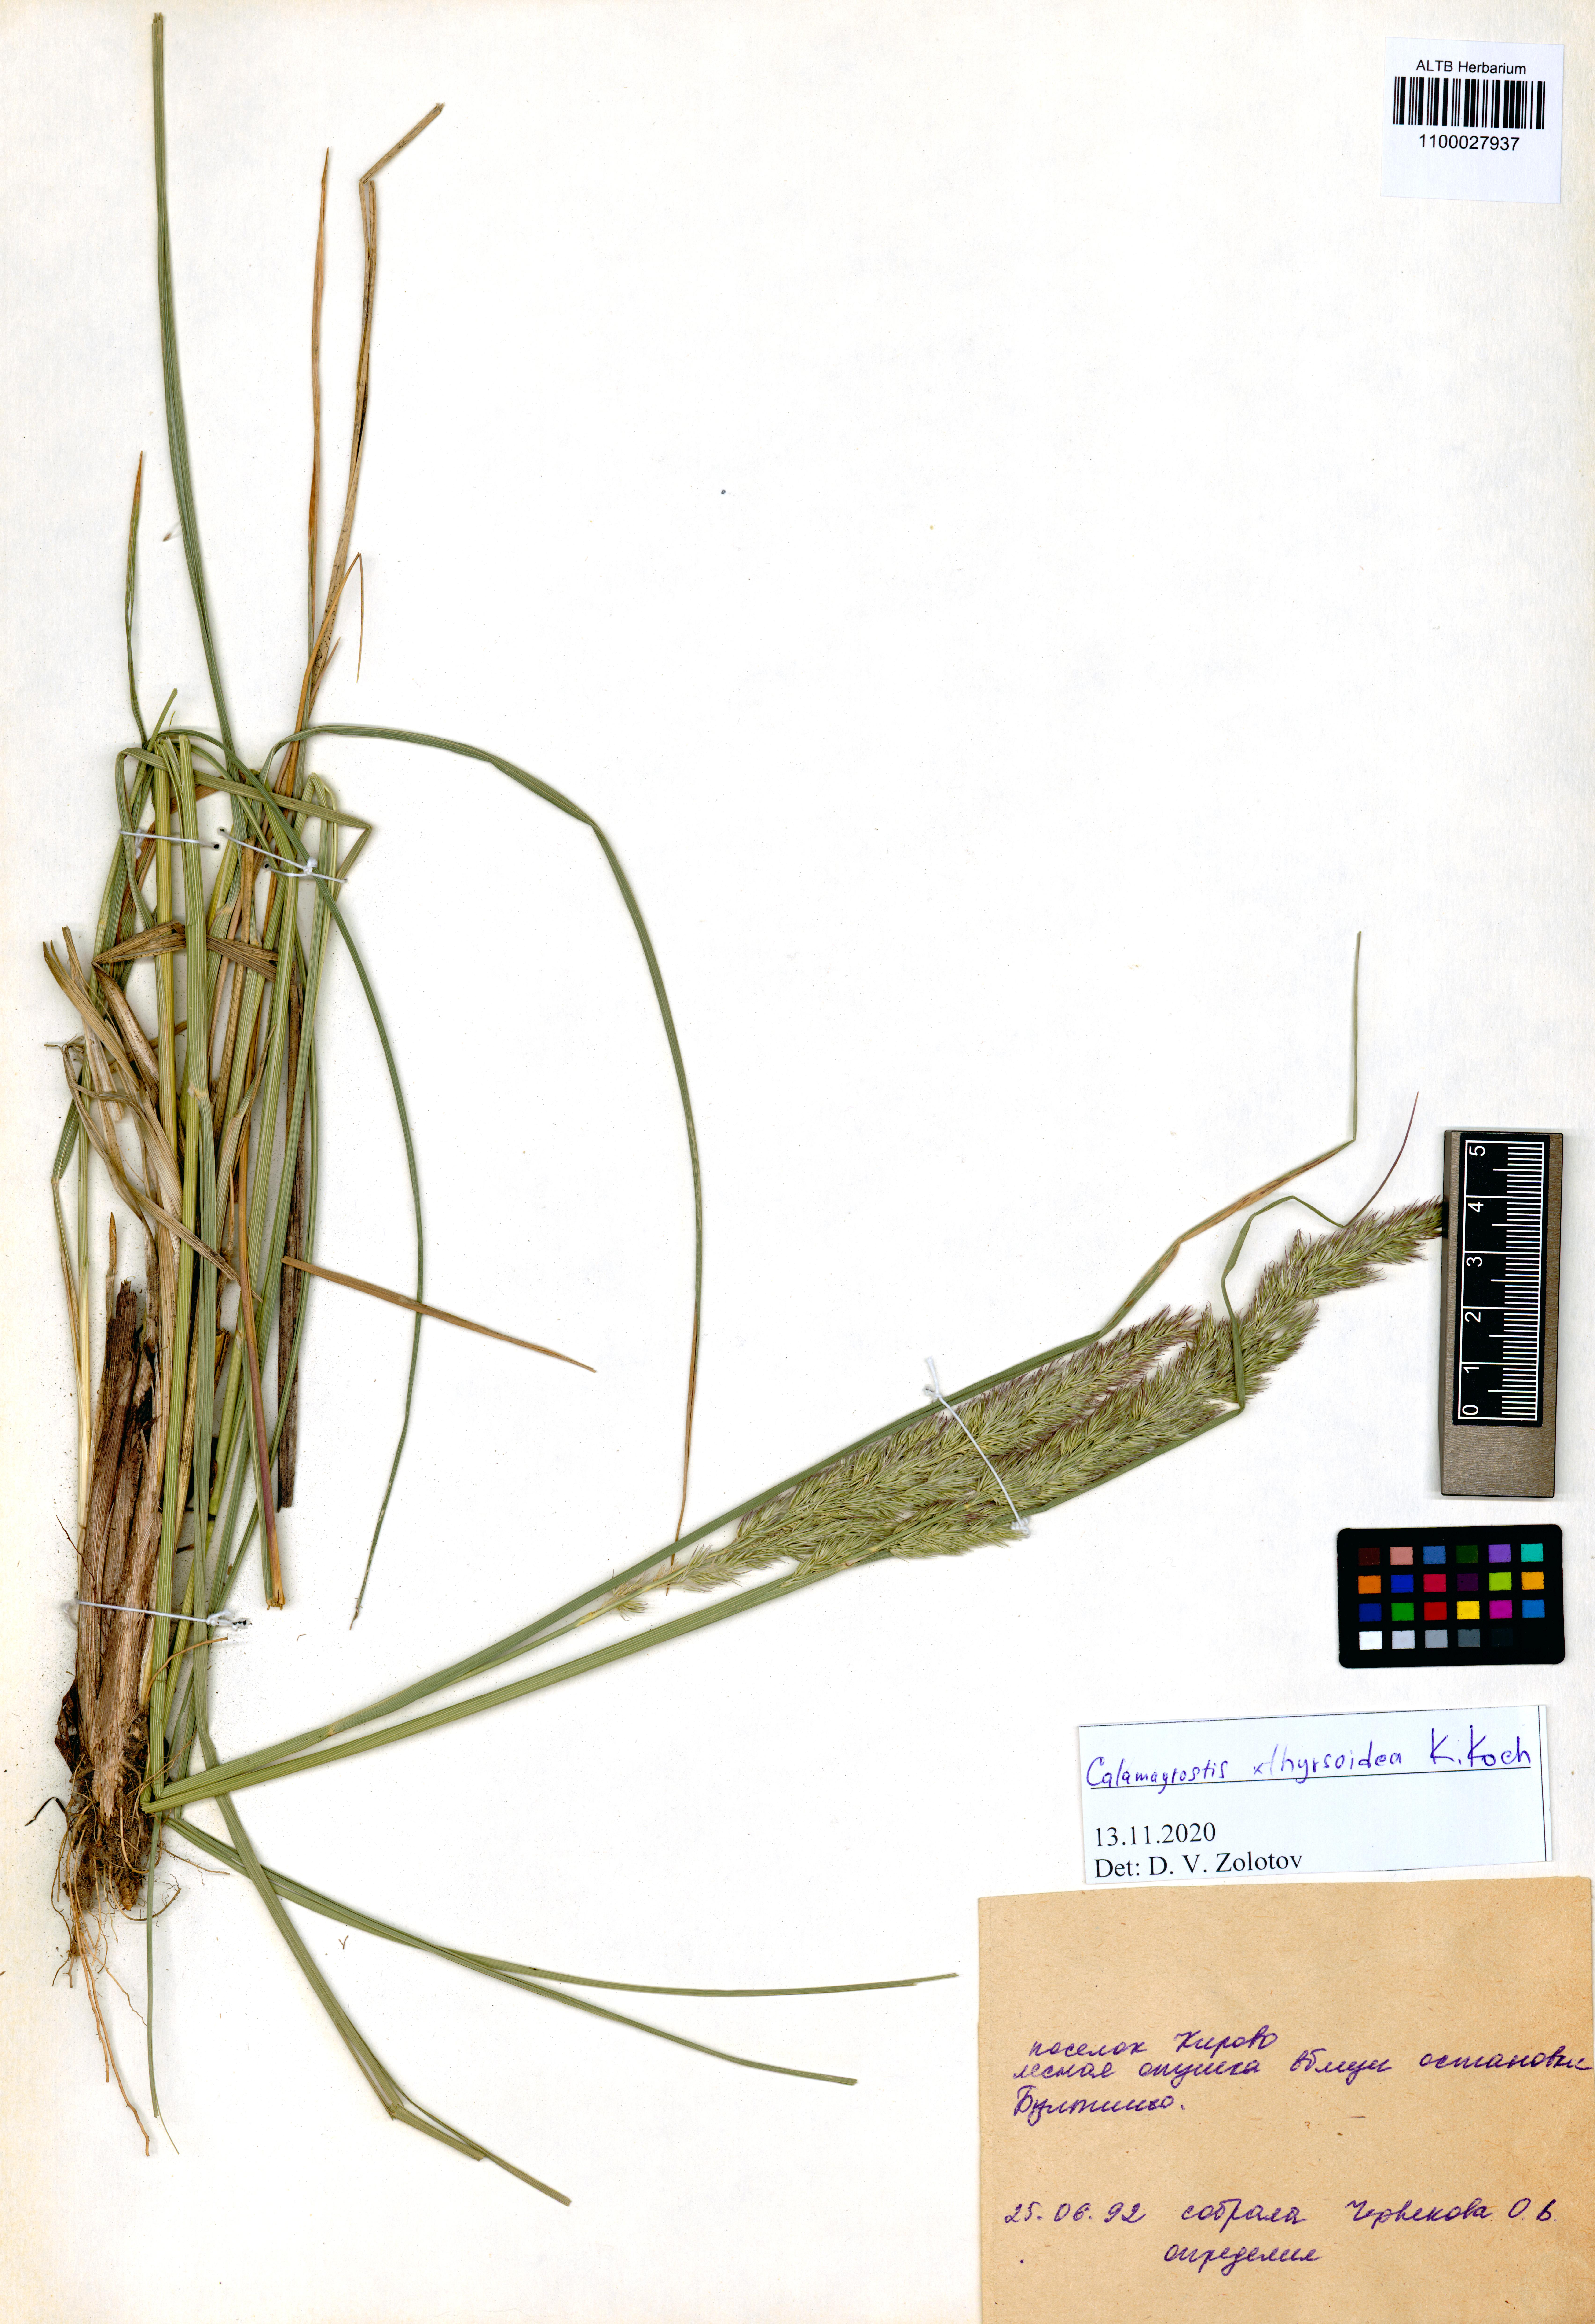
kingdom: Plantae
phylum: Tracheophyta
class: Liliopsida
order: Poales
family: Poaceae
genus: Calamagrostis
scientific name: Calamagrostis epigejos x pseudophragmites
